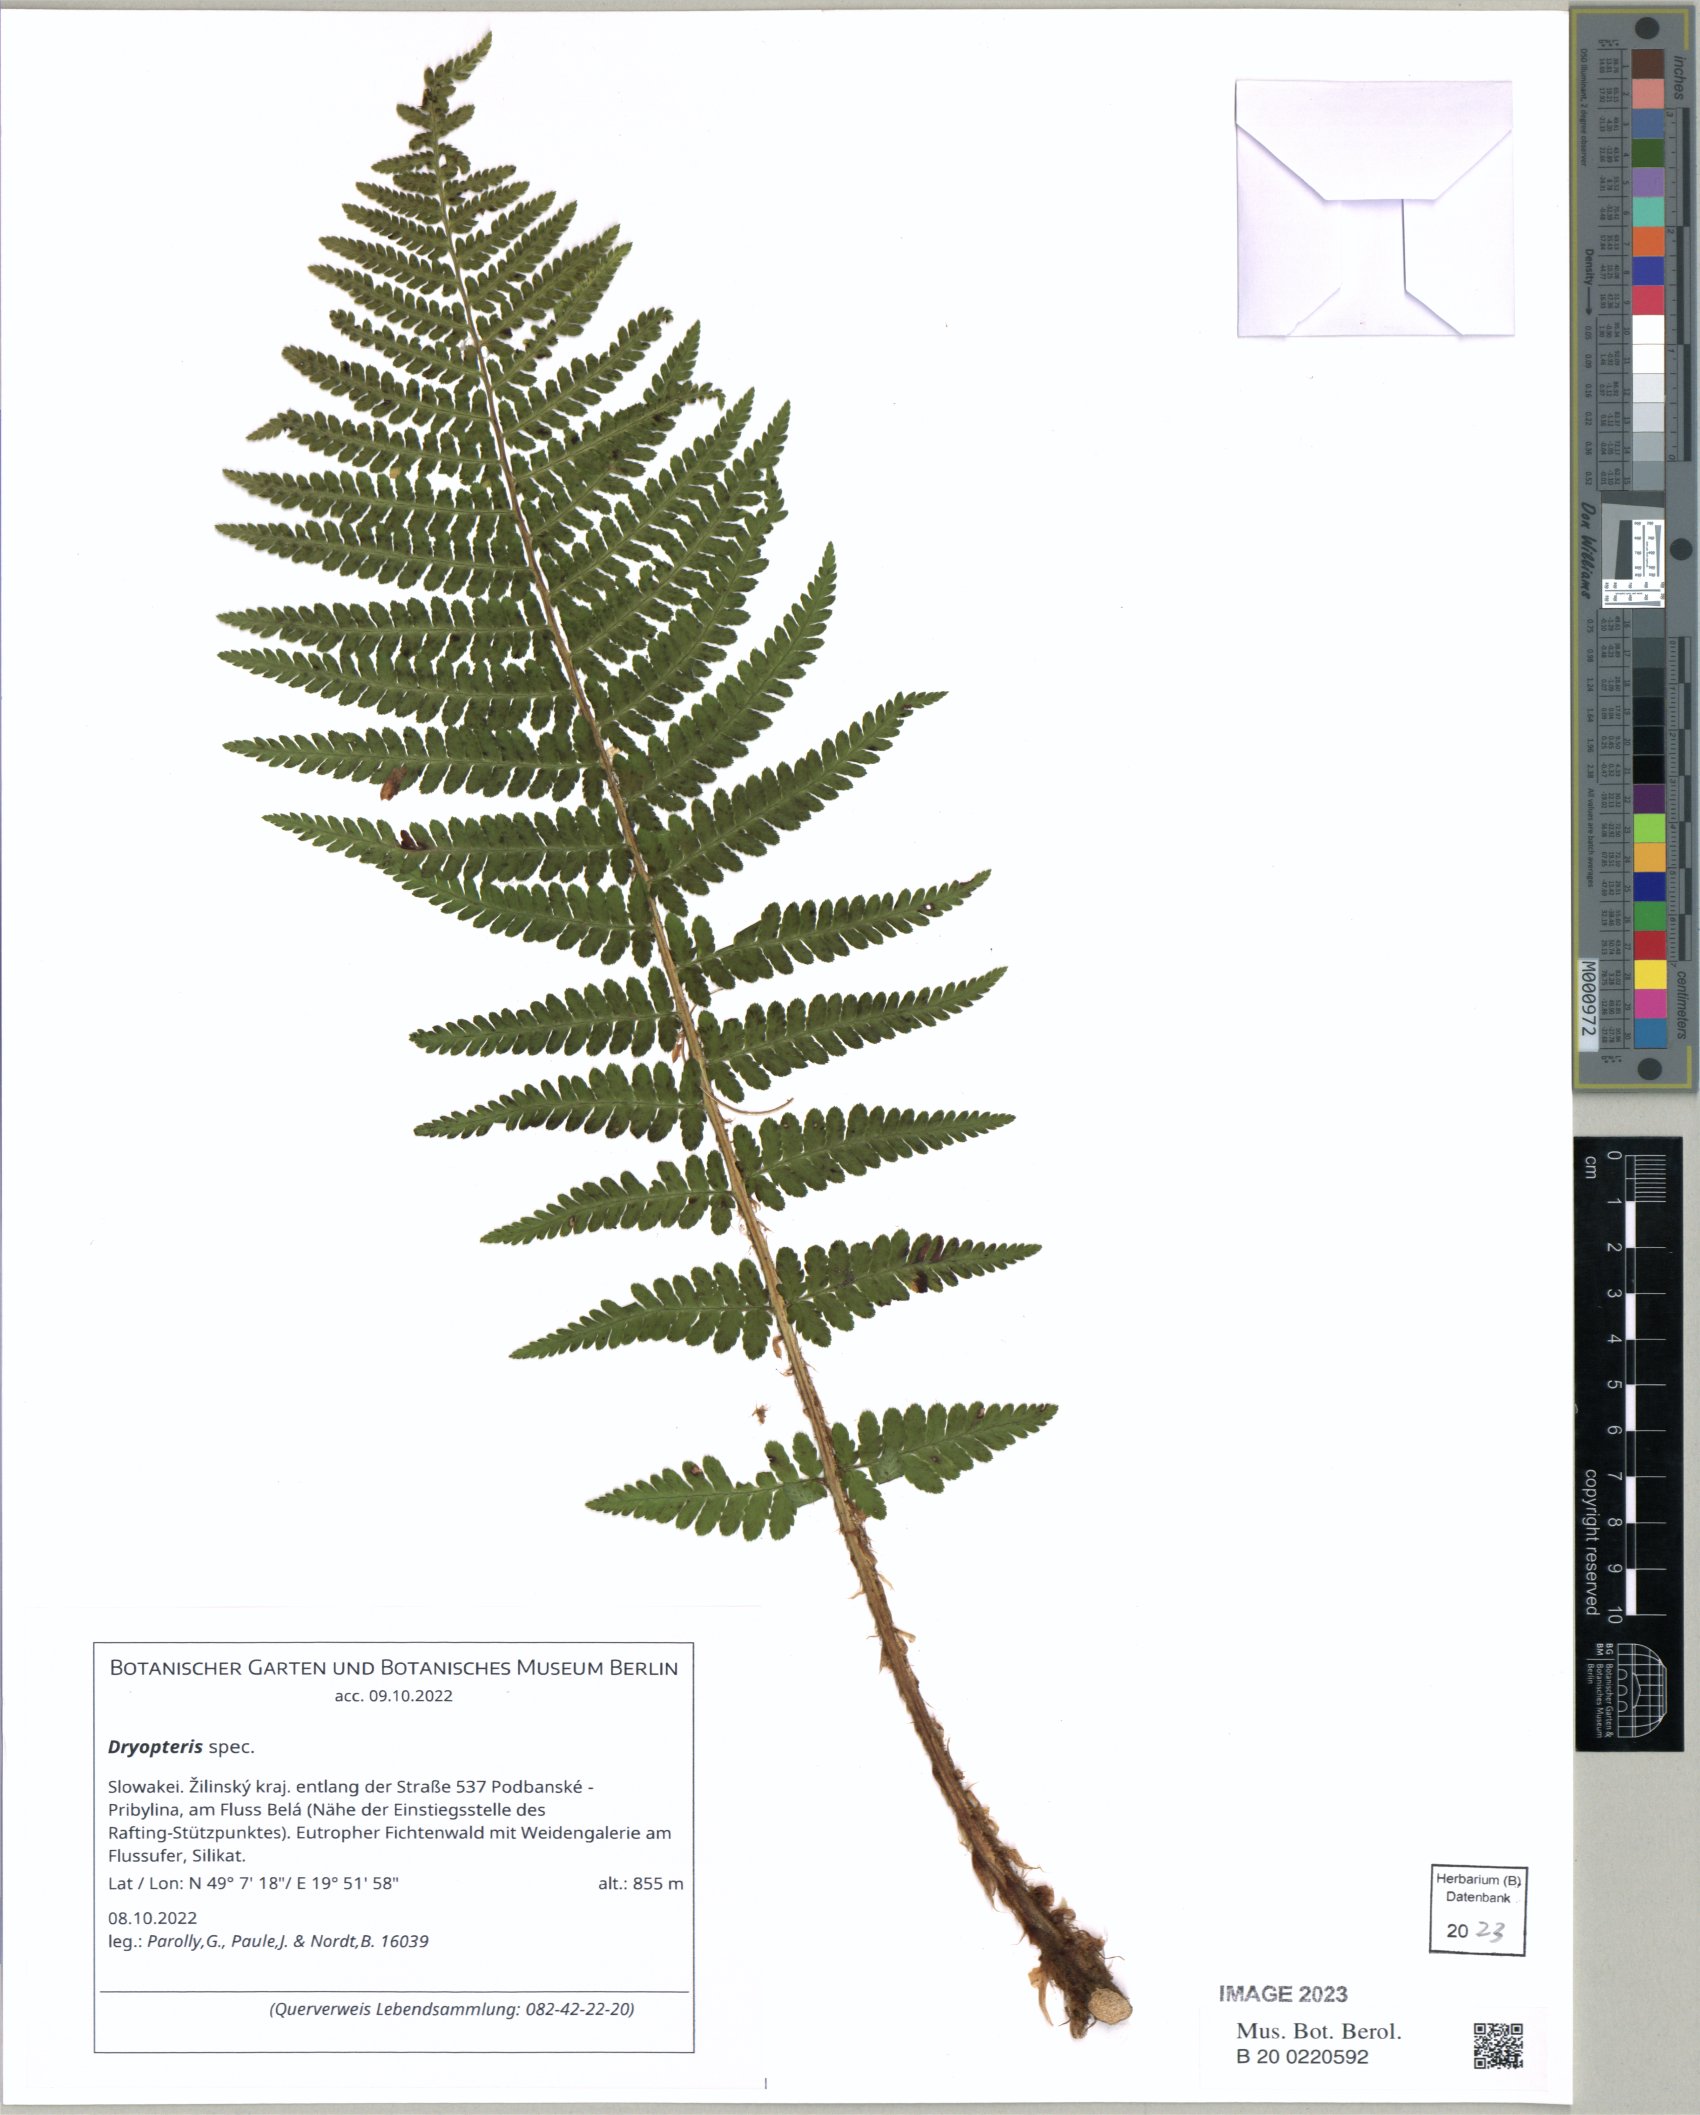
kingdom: Plantae
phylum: Tracheophyta
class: Polypodiopsida
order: Polypodiales
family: Dryopteridaceae
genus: Dryopteris
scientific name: Dryopteris cristata
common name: Crested wood fern
